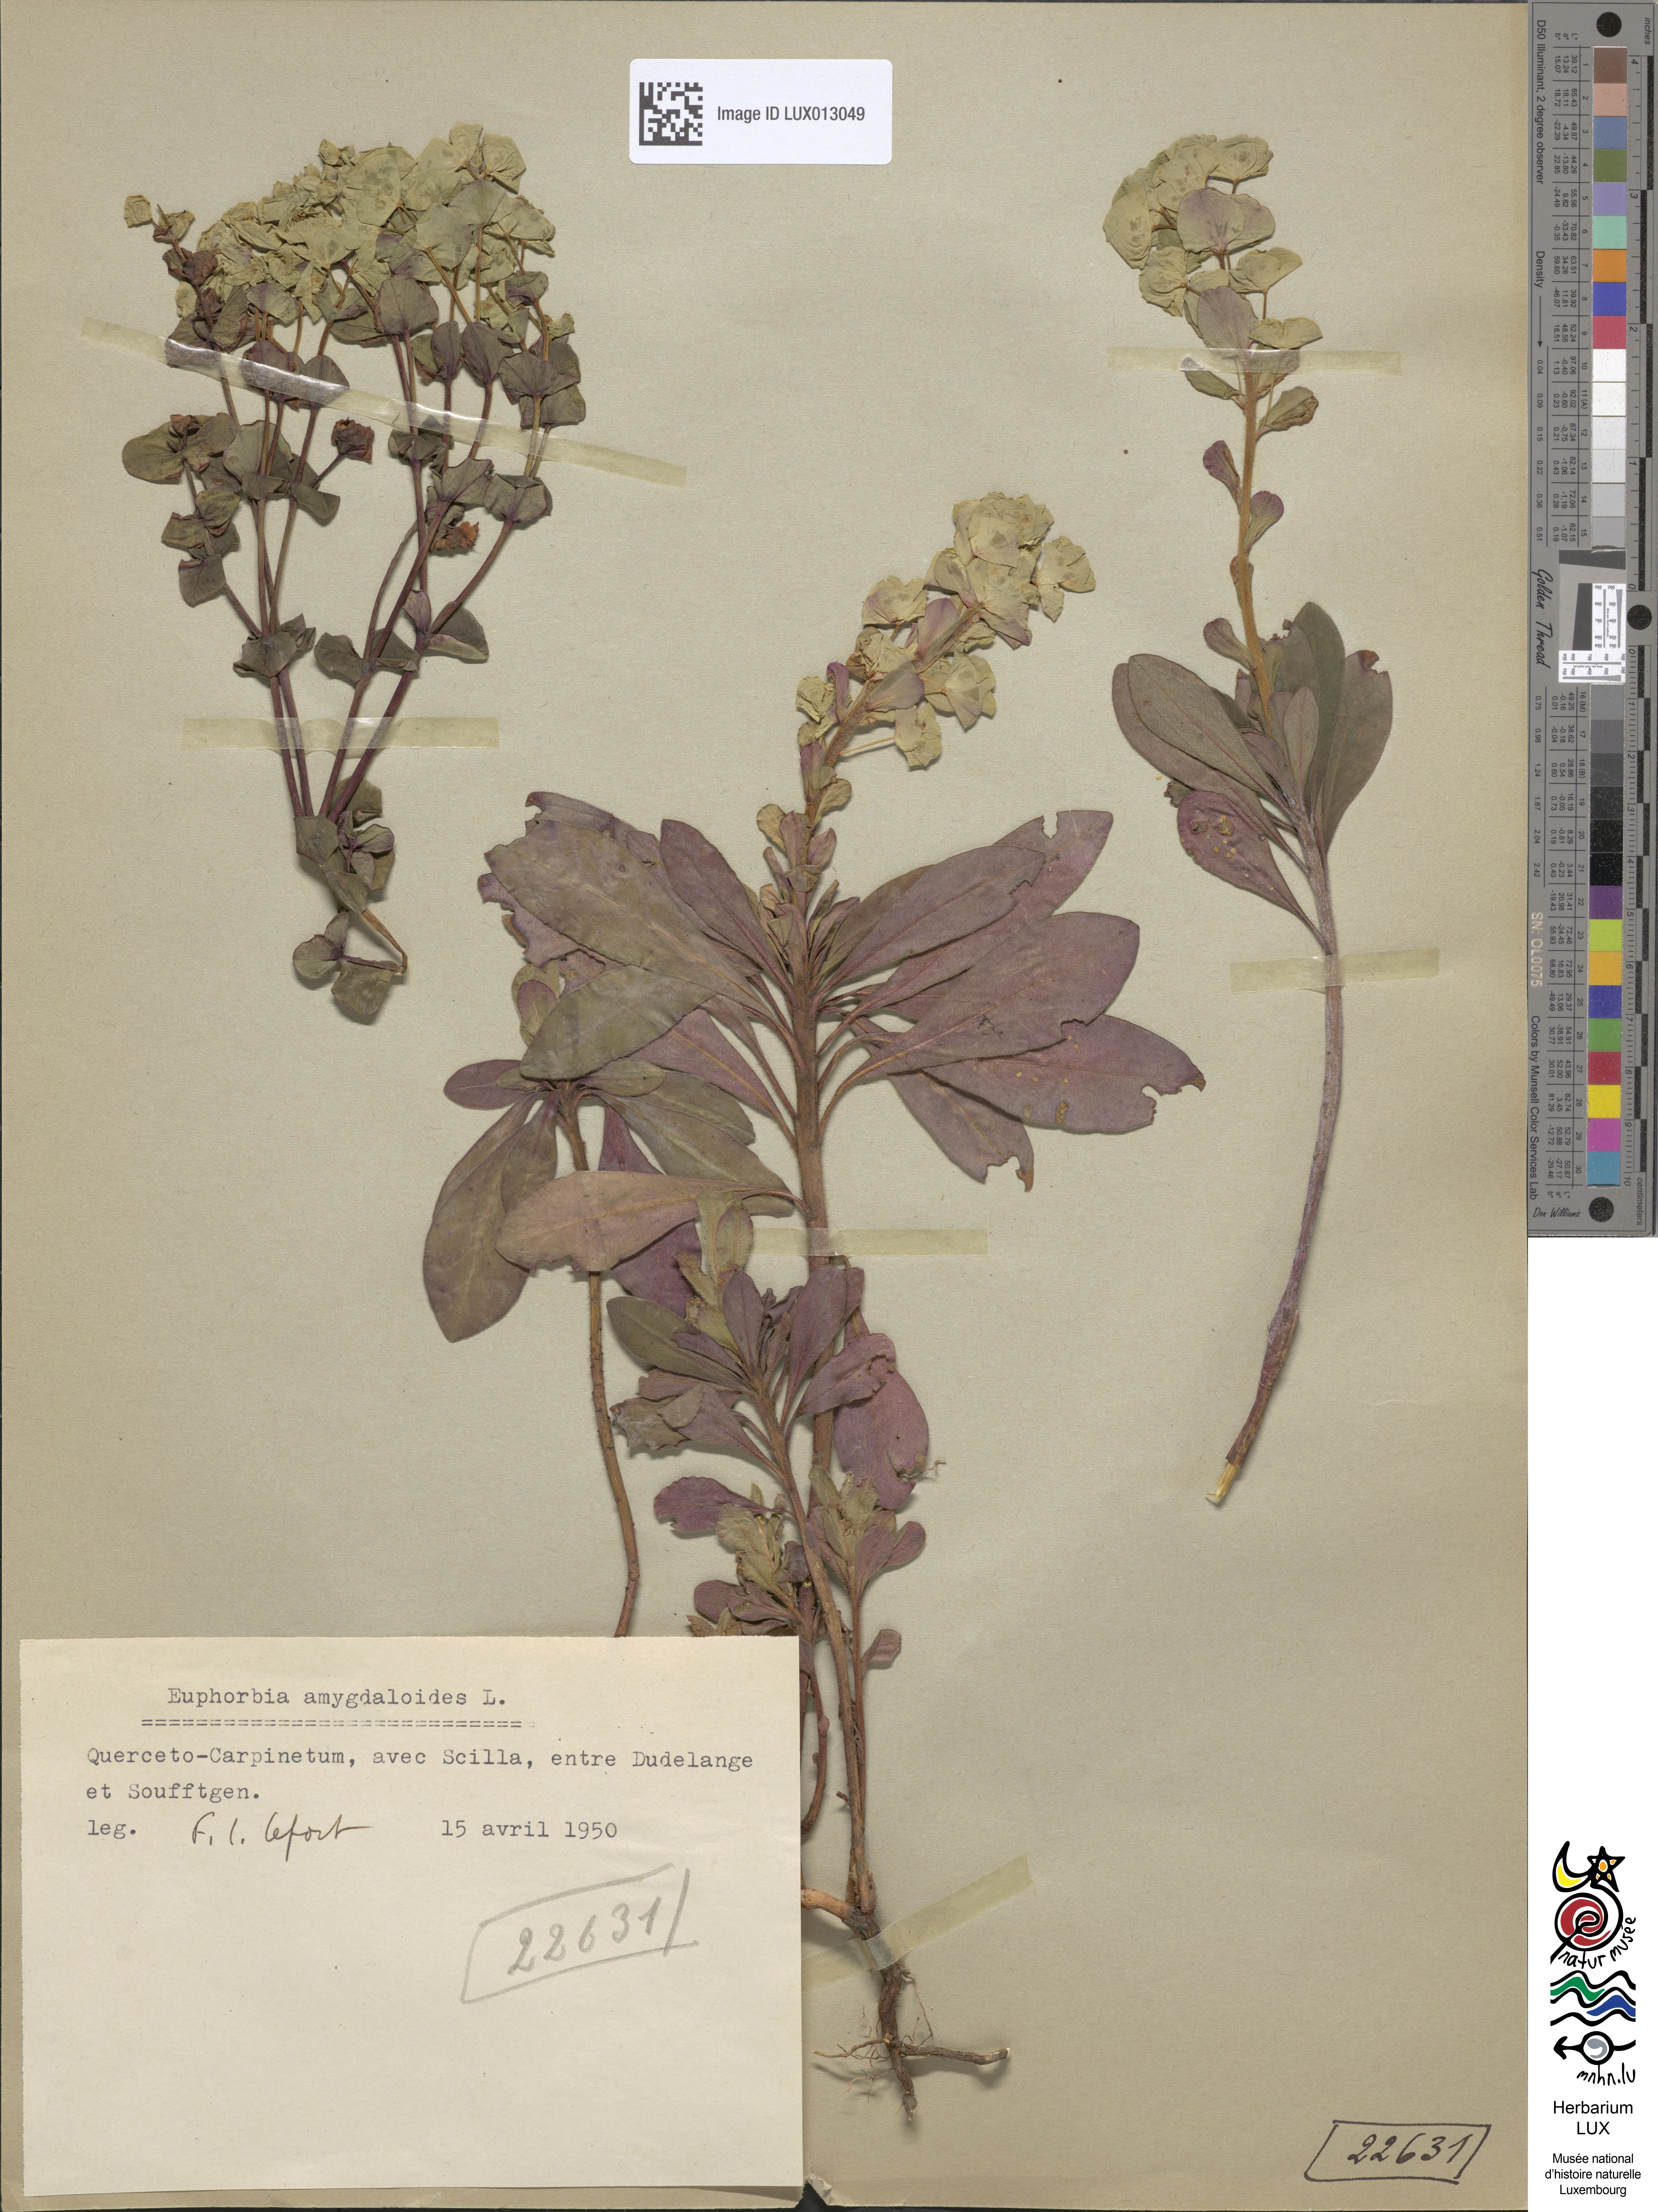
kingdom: Plantae
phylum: Tracheophyta
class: Magnoliopsida
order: Malpighiales
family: Euphorbiaceae
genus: Euphorbia
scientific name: Euphorbia amygdaloides
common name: Wood spurge
